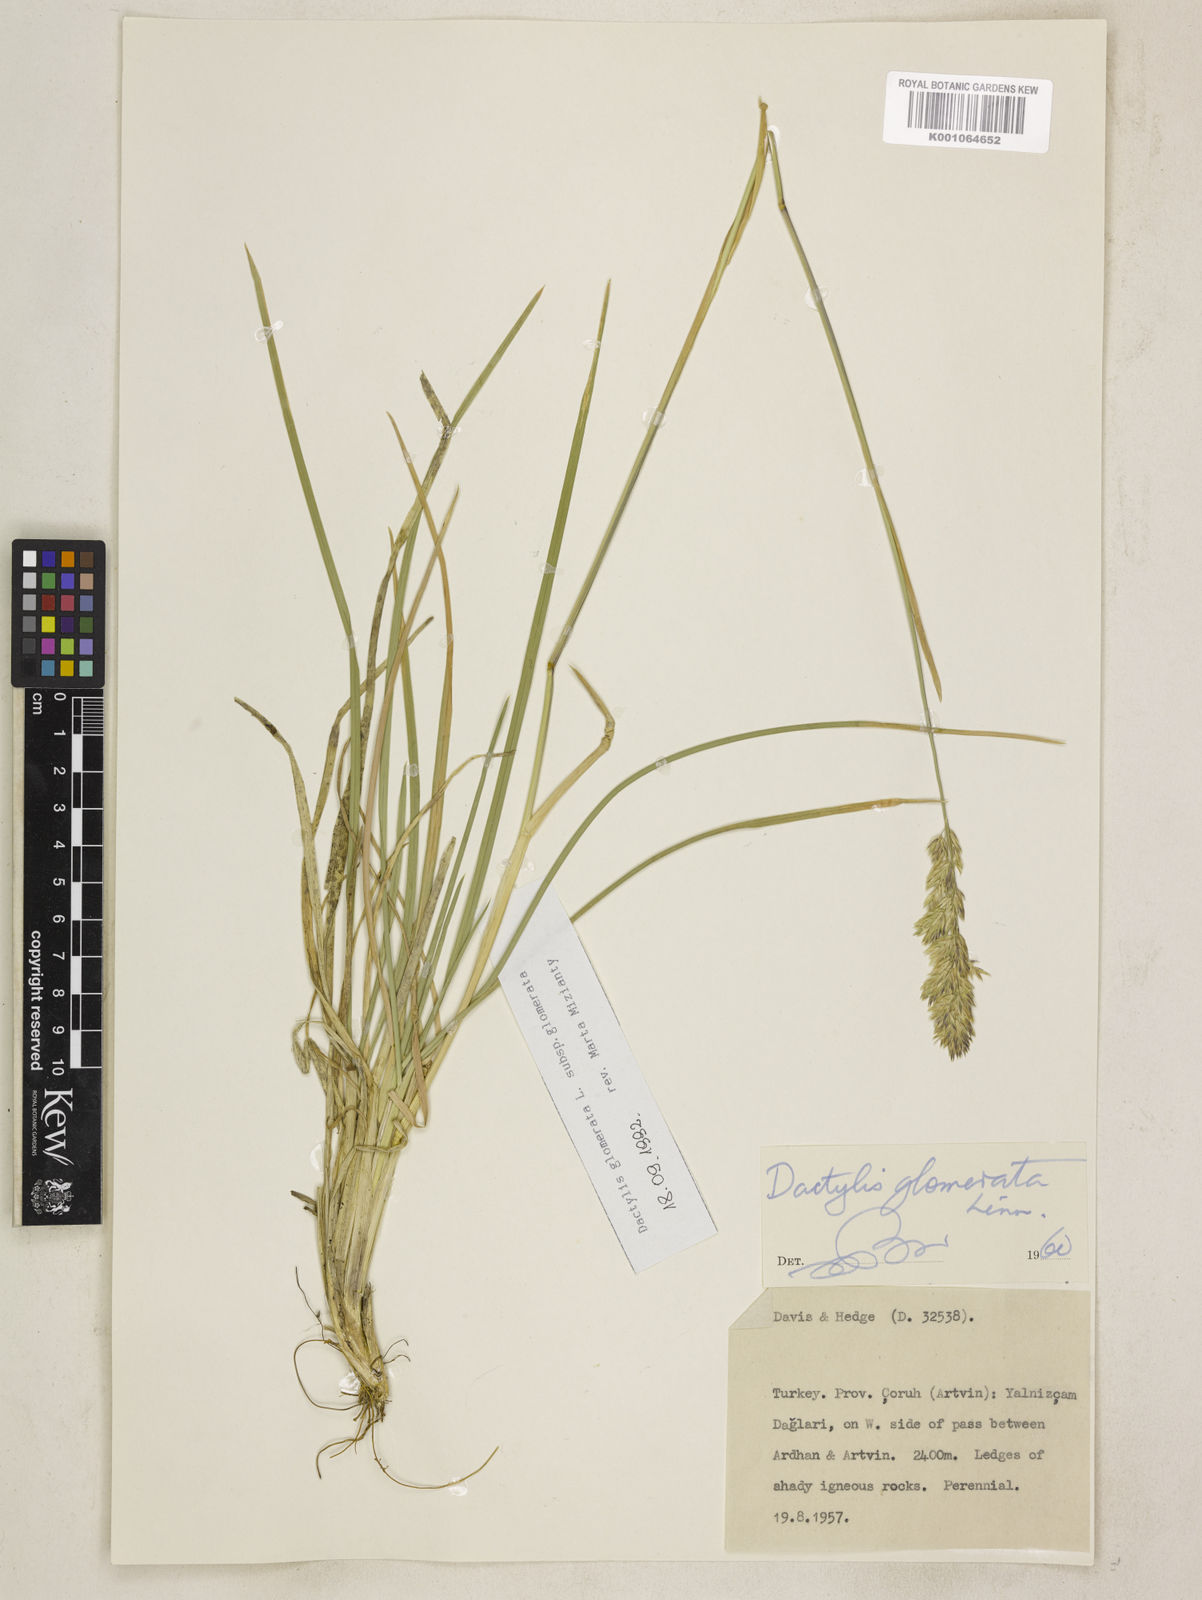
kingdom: Plantae
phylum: Tracheophyta
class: Liliopsida
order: Poales
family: Poaceae
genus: Dactylis
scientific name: Dactylis glomerata
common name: Orchardgrass
